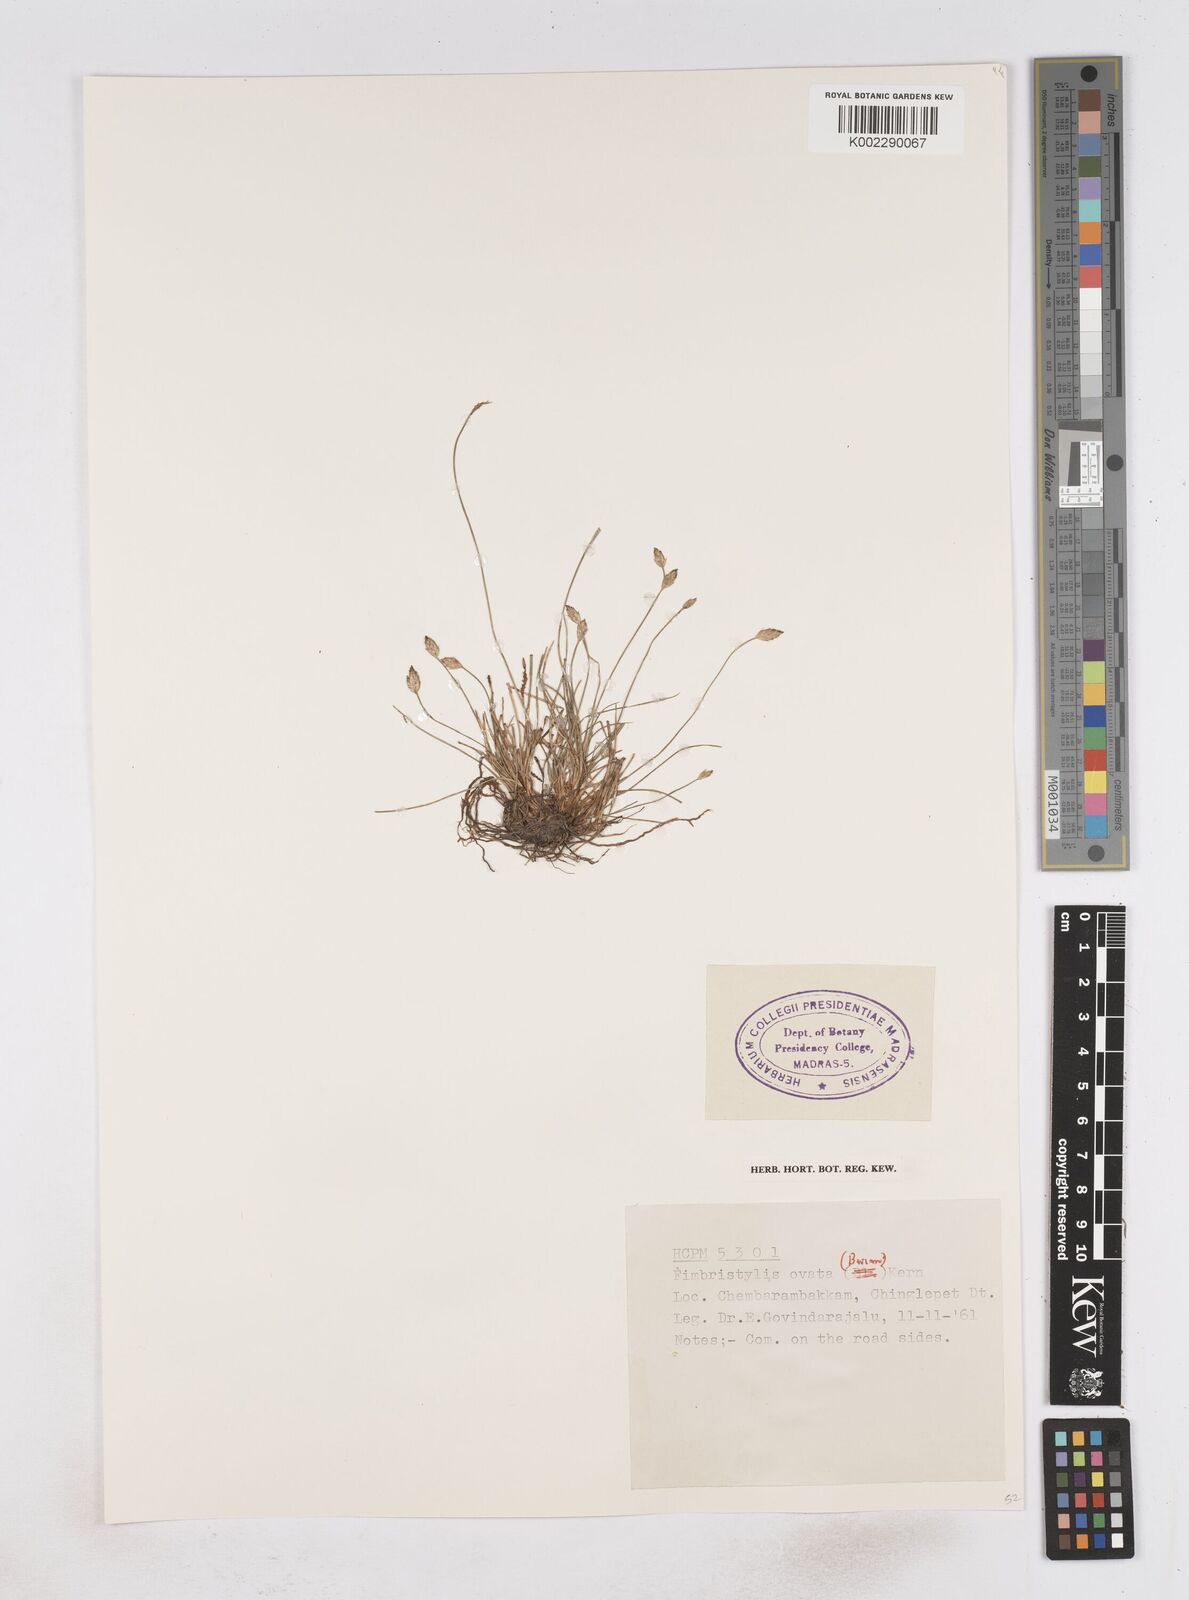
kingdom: Plantae
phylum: Tracheophyta
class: Liliopsida
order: Poales
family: Cyperaceae
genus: Abildgaardia
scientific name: Abildgaardia ovata
